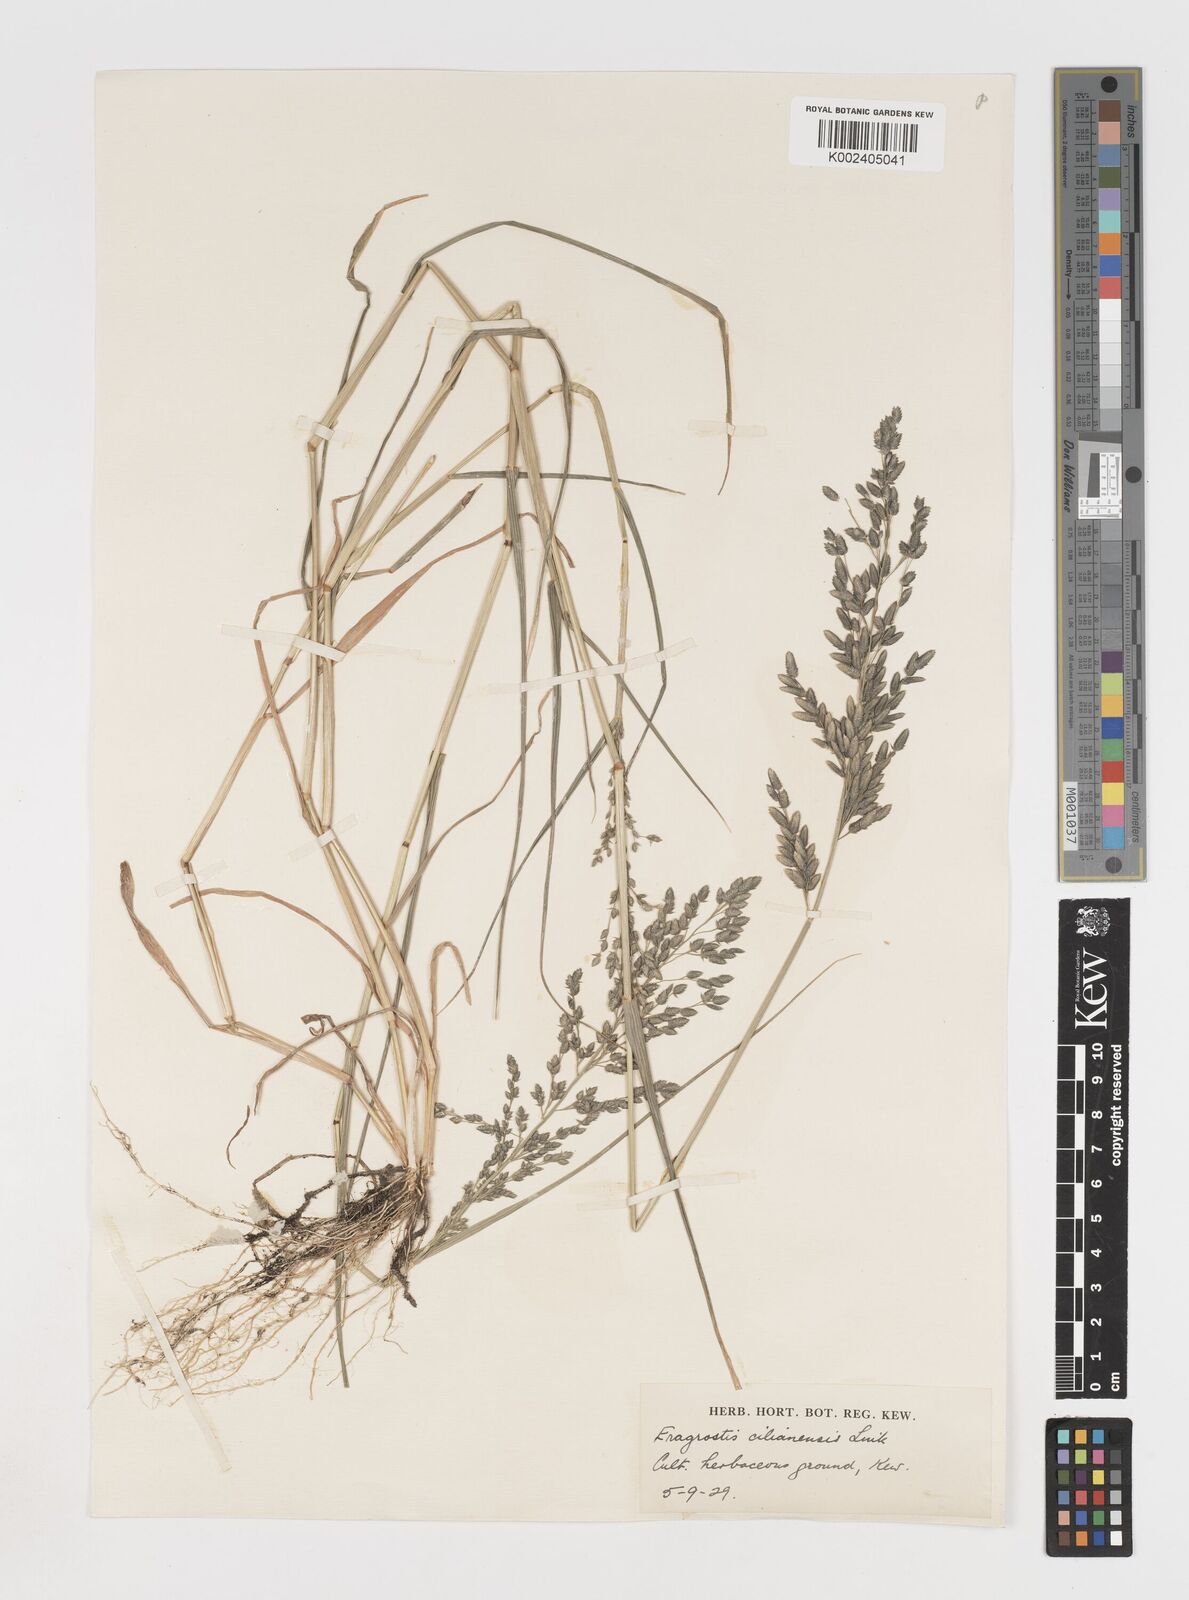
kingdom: Plantae
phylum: Tracheophyta
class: Liliopsida
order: Poales
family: Poaceae
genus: Eragrostis
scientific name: Eragrostis cilianensis
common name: Stinkgrass
